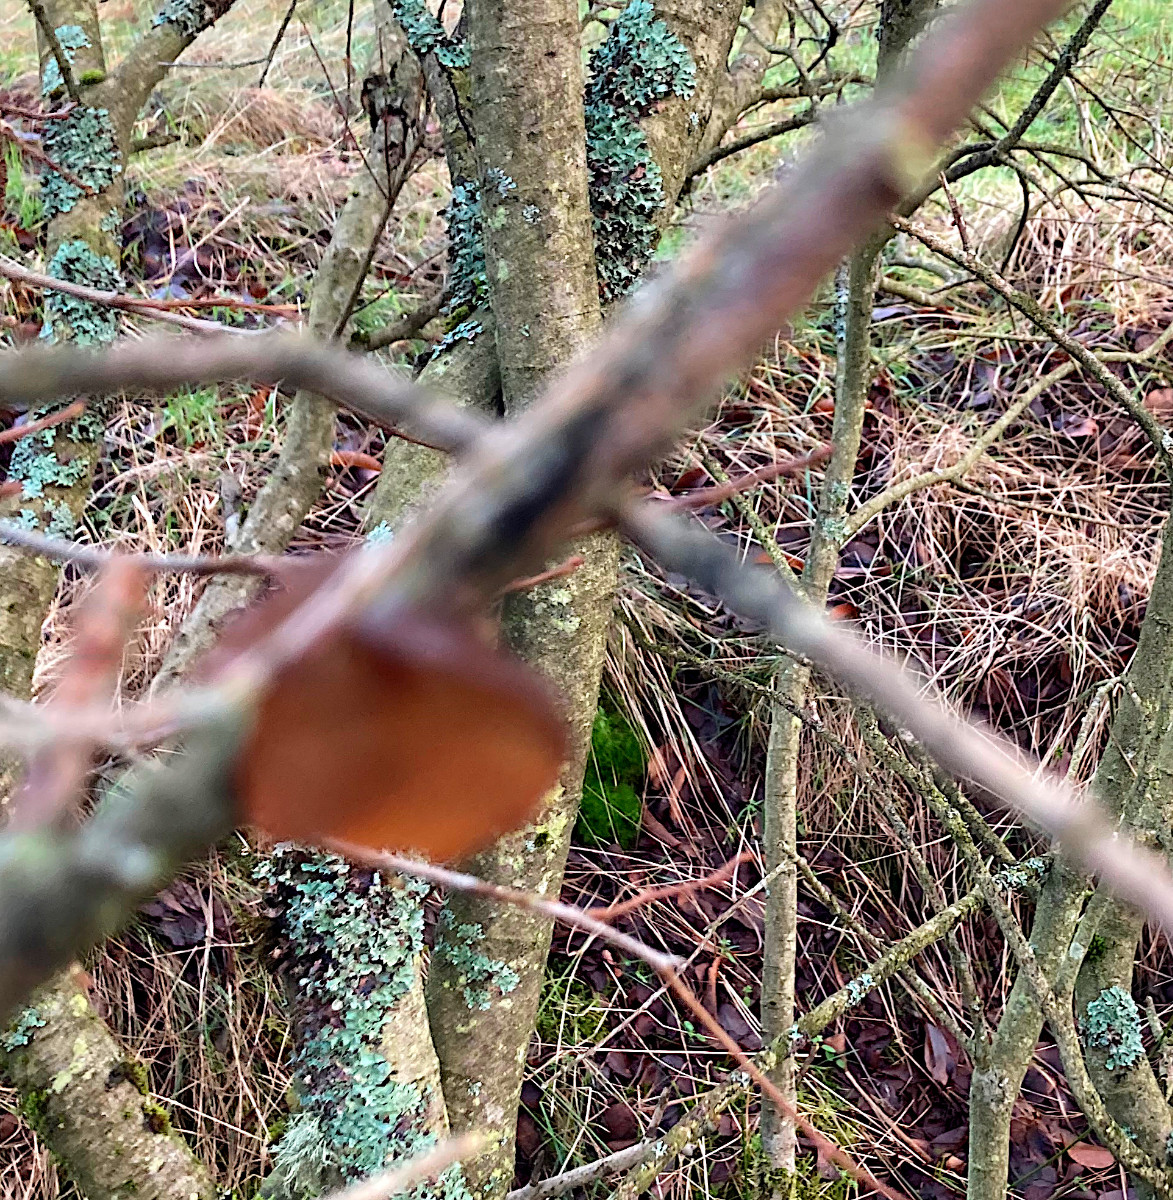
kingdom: Fungi
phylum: Basidiomycota
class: Agaricomycetes
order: Auriculariales
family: Auriculariaceae
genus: Exidia
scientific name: Exidia recisa
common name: pile-bævretop
